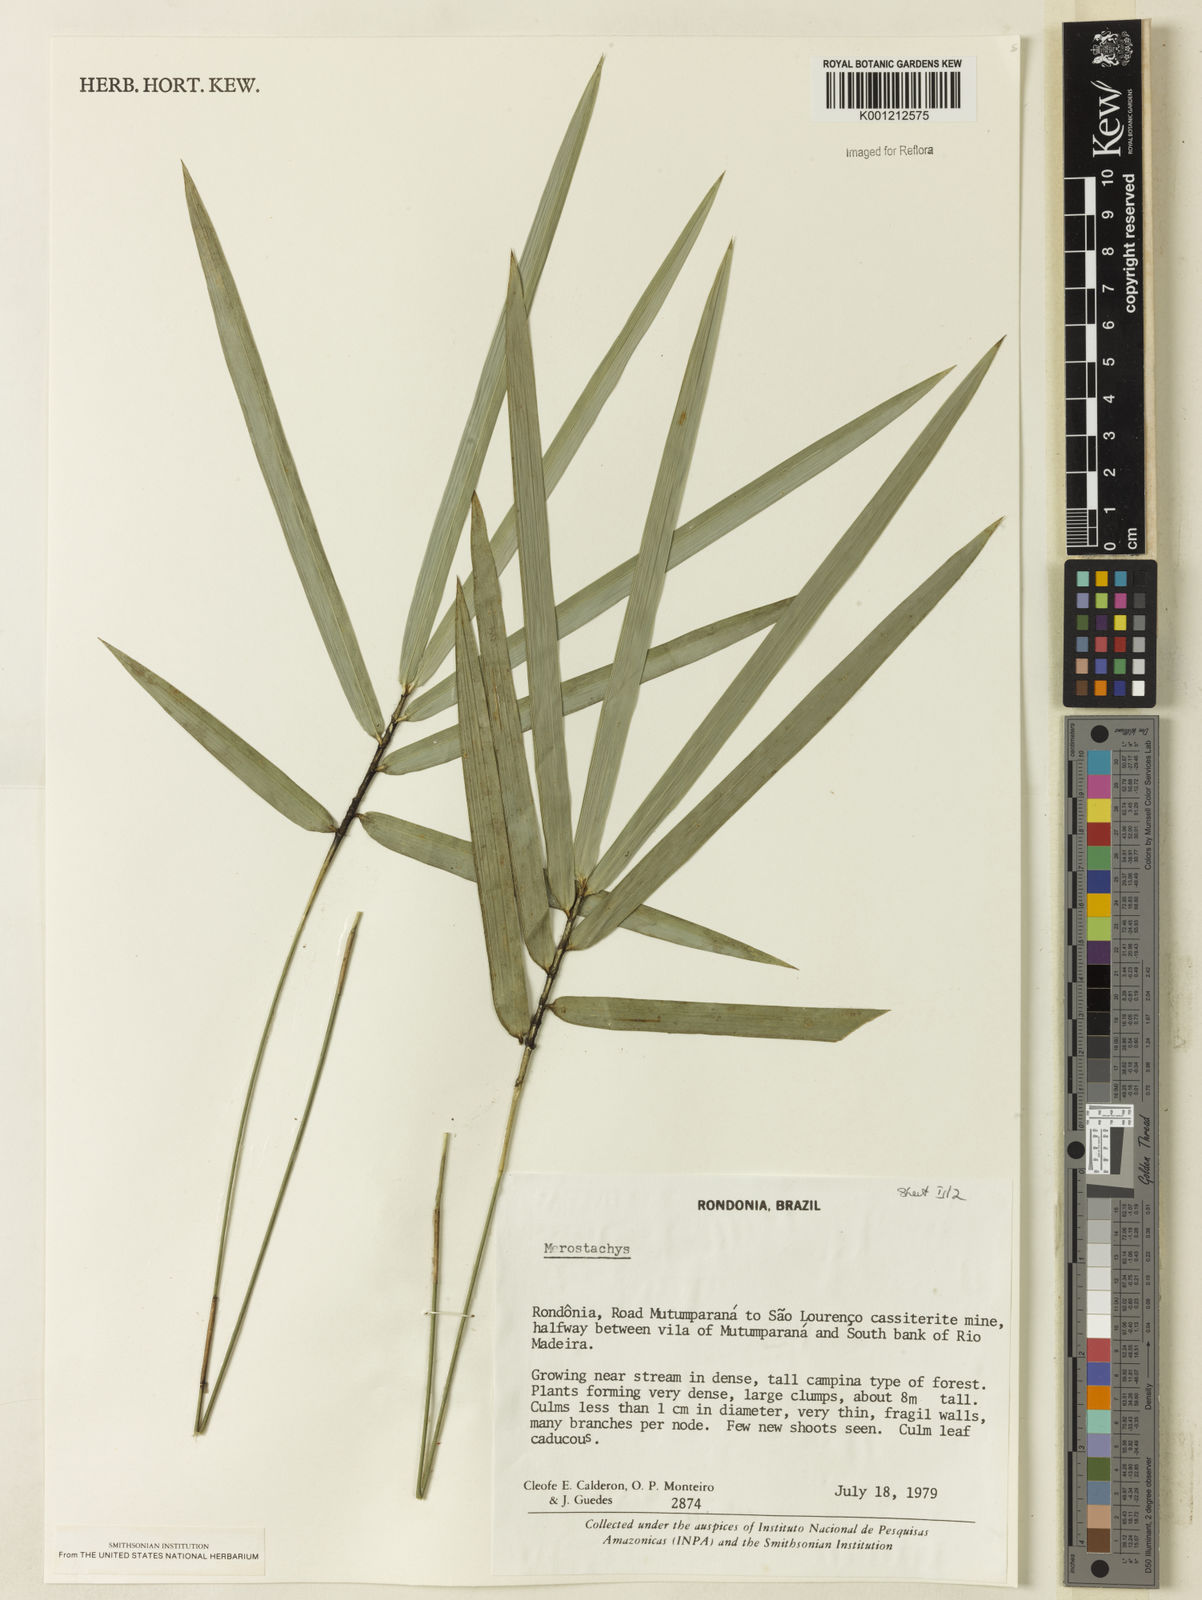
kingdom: Plantae
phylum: Tracheophyta
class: Liliopsida
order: Poales
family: Poaceae
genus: Merostachys
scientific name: Merostachys
